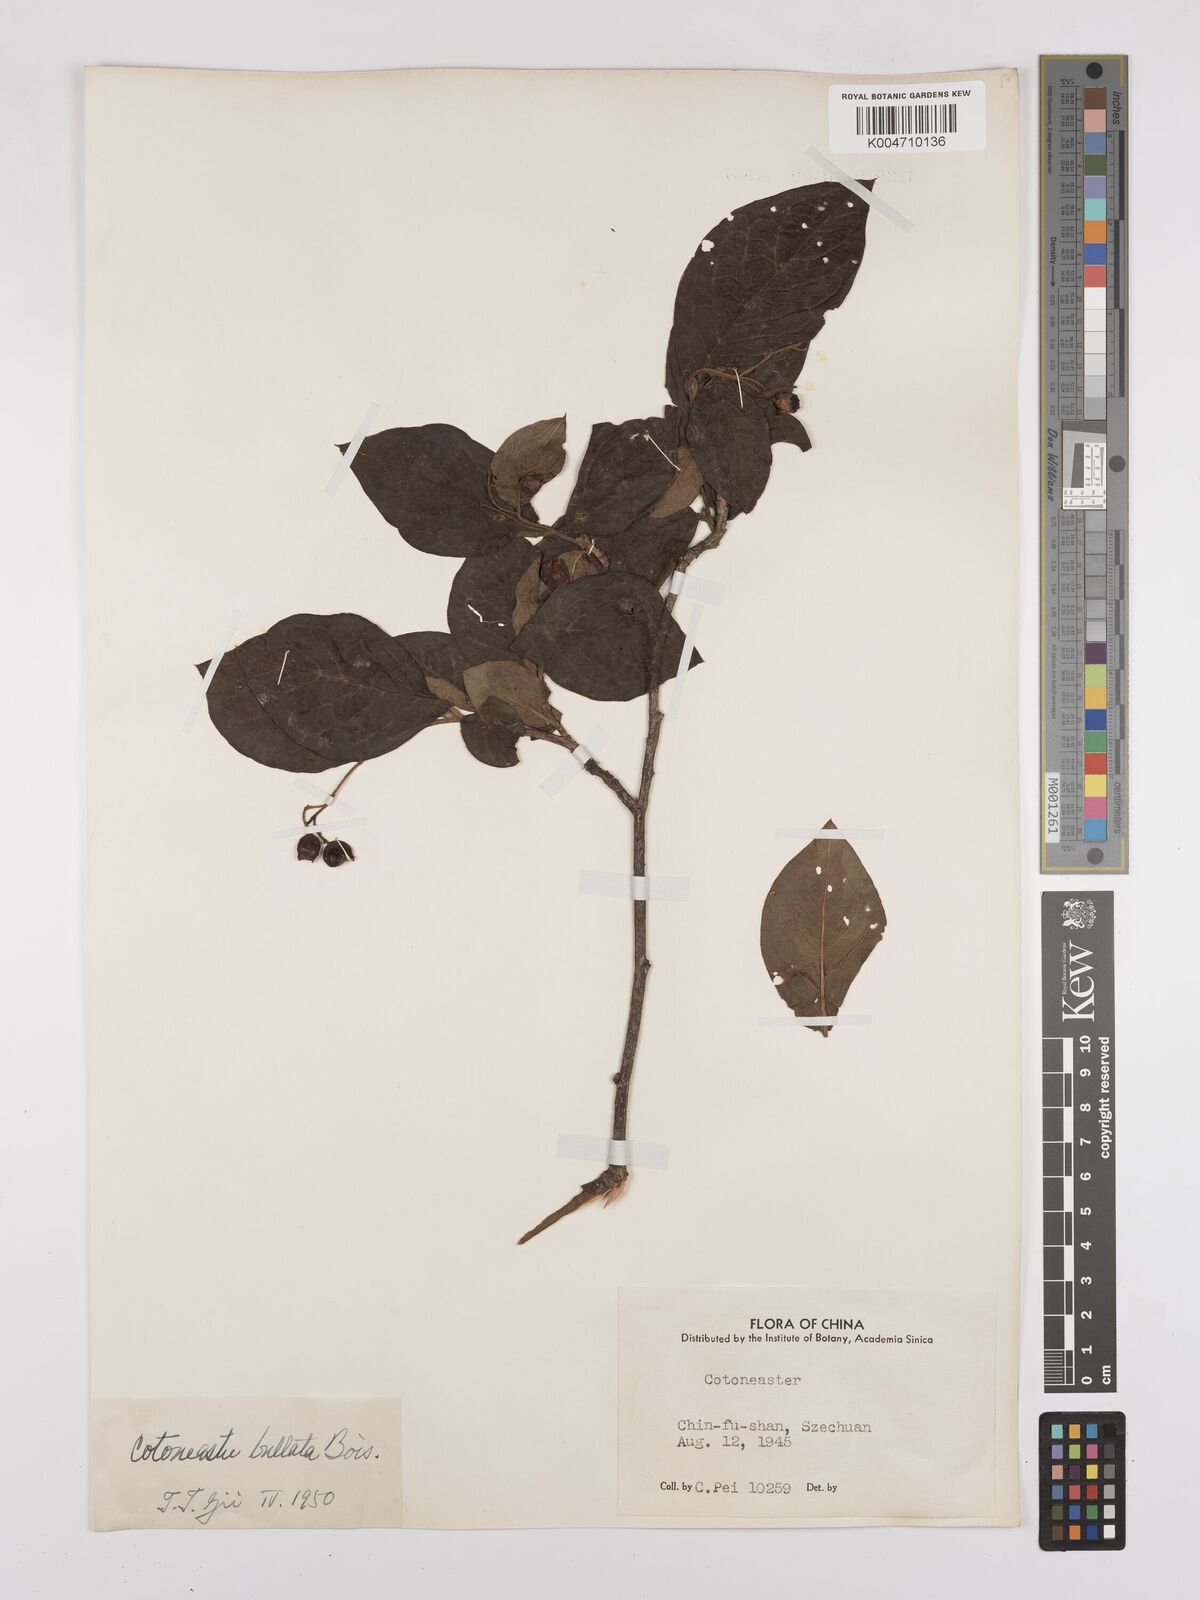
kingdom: Plantae
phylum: Tracheophyta
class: Magnoliopsida
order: Rosales
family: Rosaceae
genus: Cotoneaster
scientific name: Cotoneaster bullatus
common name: Hollyberry cotoneaster
